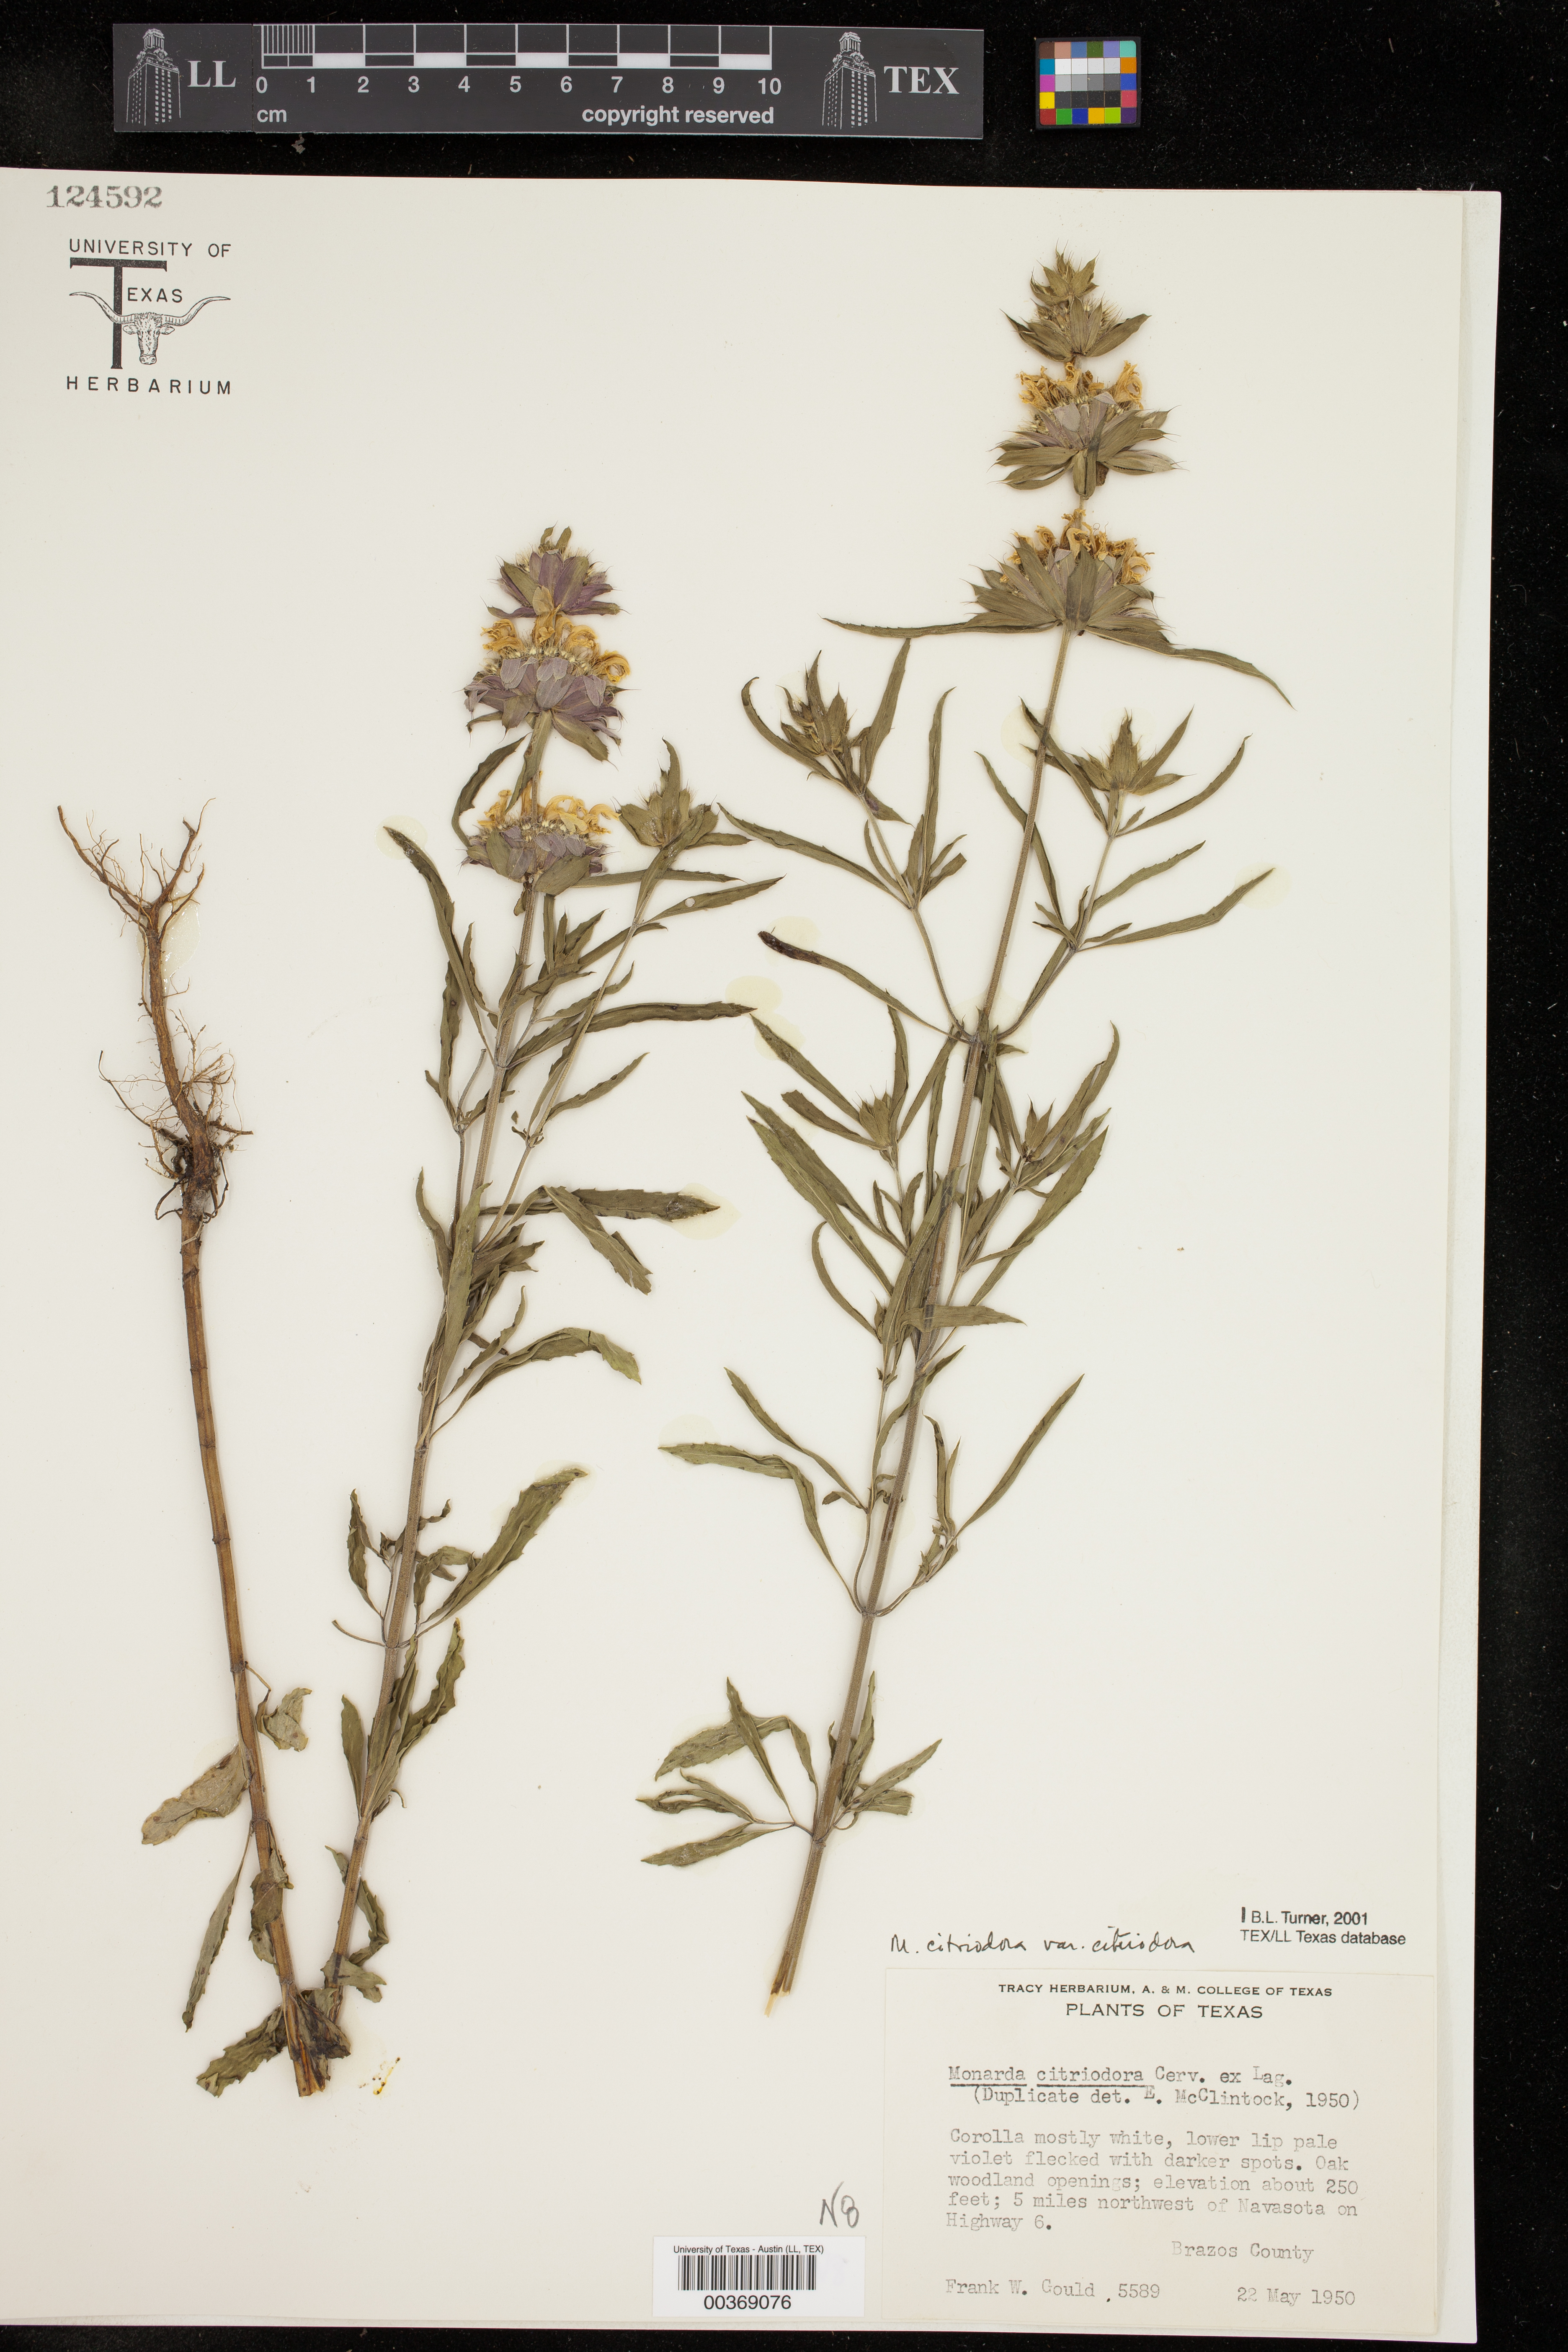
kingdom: Plantae
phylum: Tracheophyta
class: Magnoliopsida
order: Lamiales
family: Lamiaceae
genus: Monarda
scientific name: Monarda citriodora
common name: Lemon beebalm
